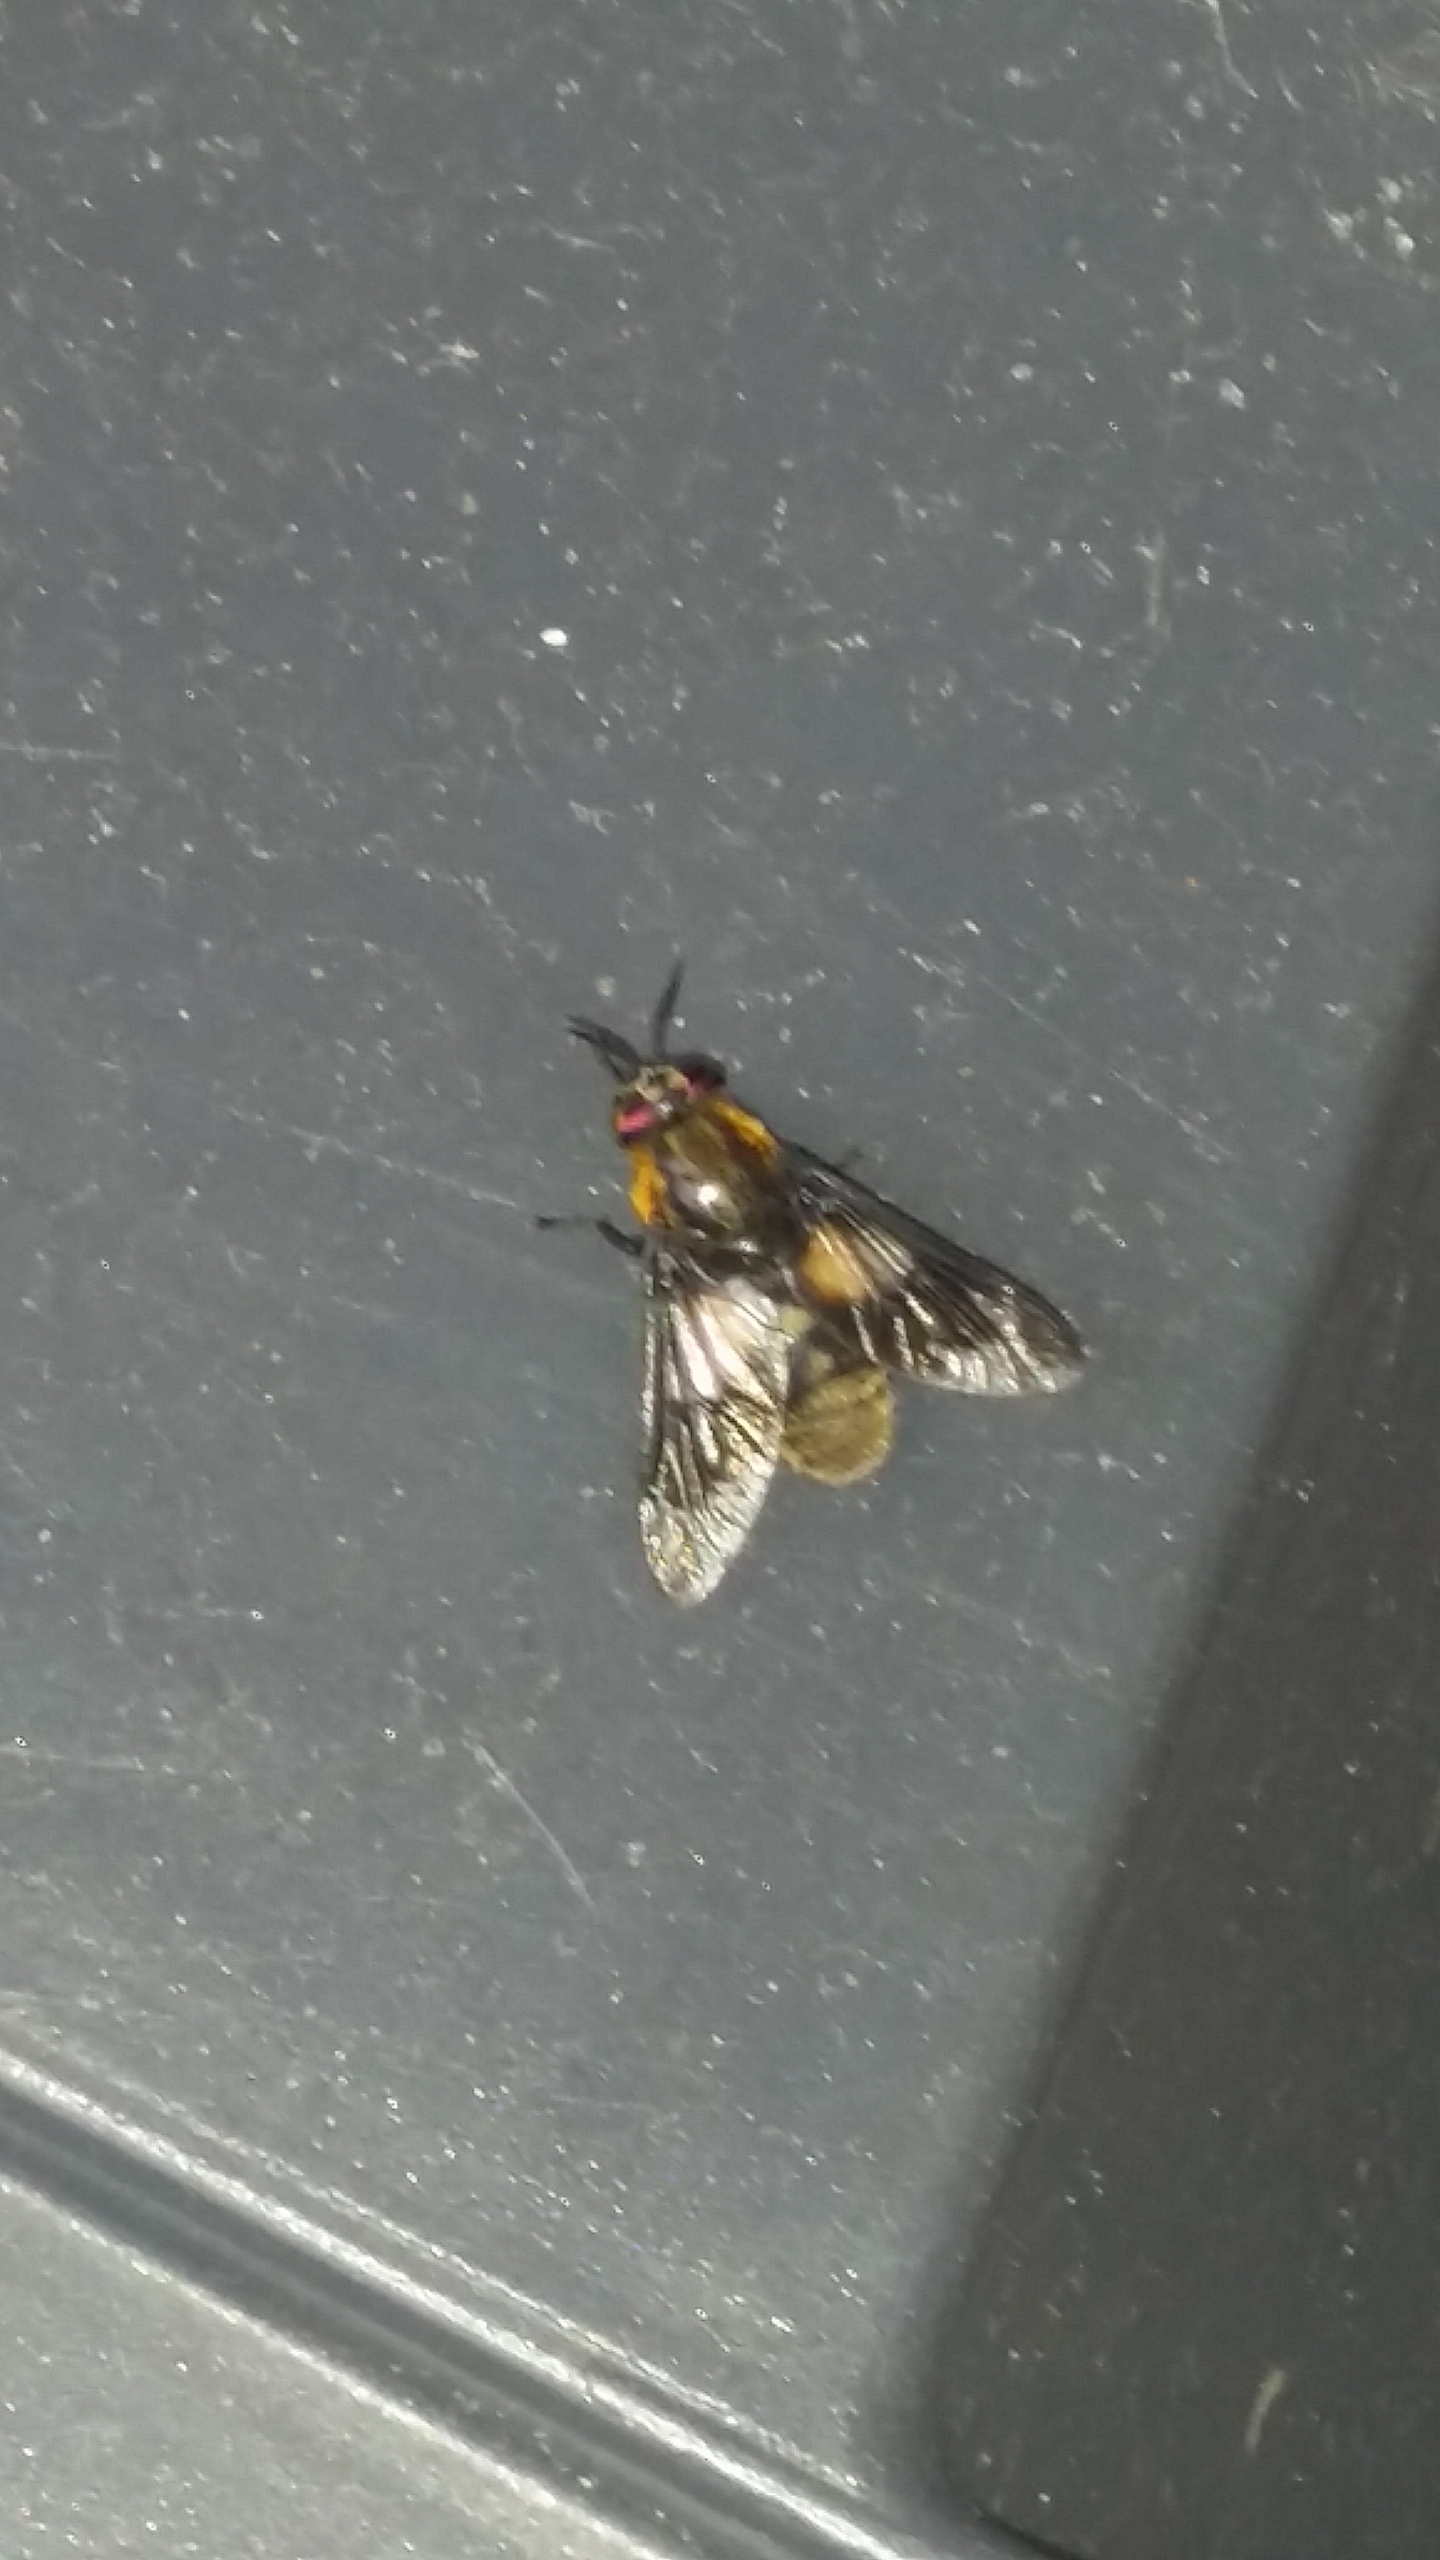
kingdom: Animalia
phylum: Arthropoda
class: Insecta
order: Diptera
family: Tabanidae
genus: Chrysops
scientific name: Chrysops relictus
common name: Guldklæg
